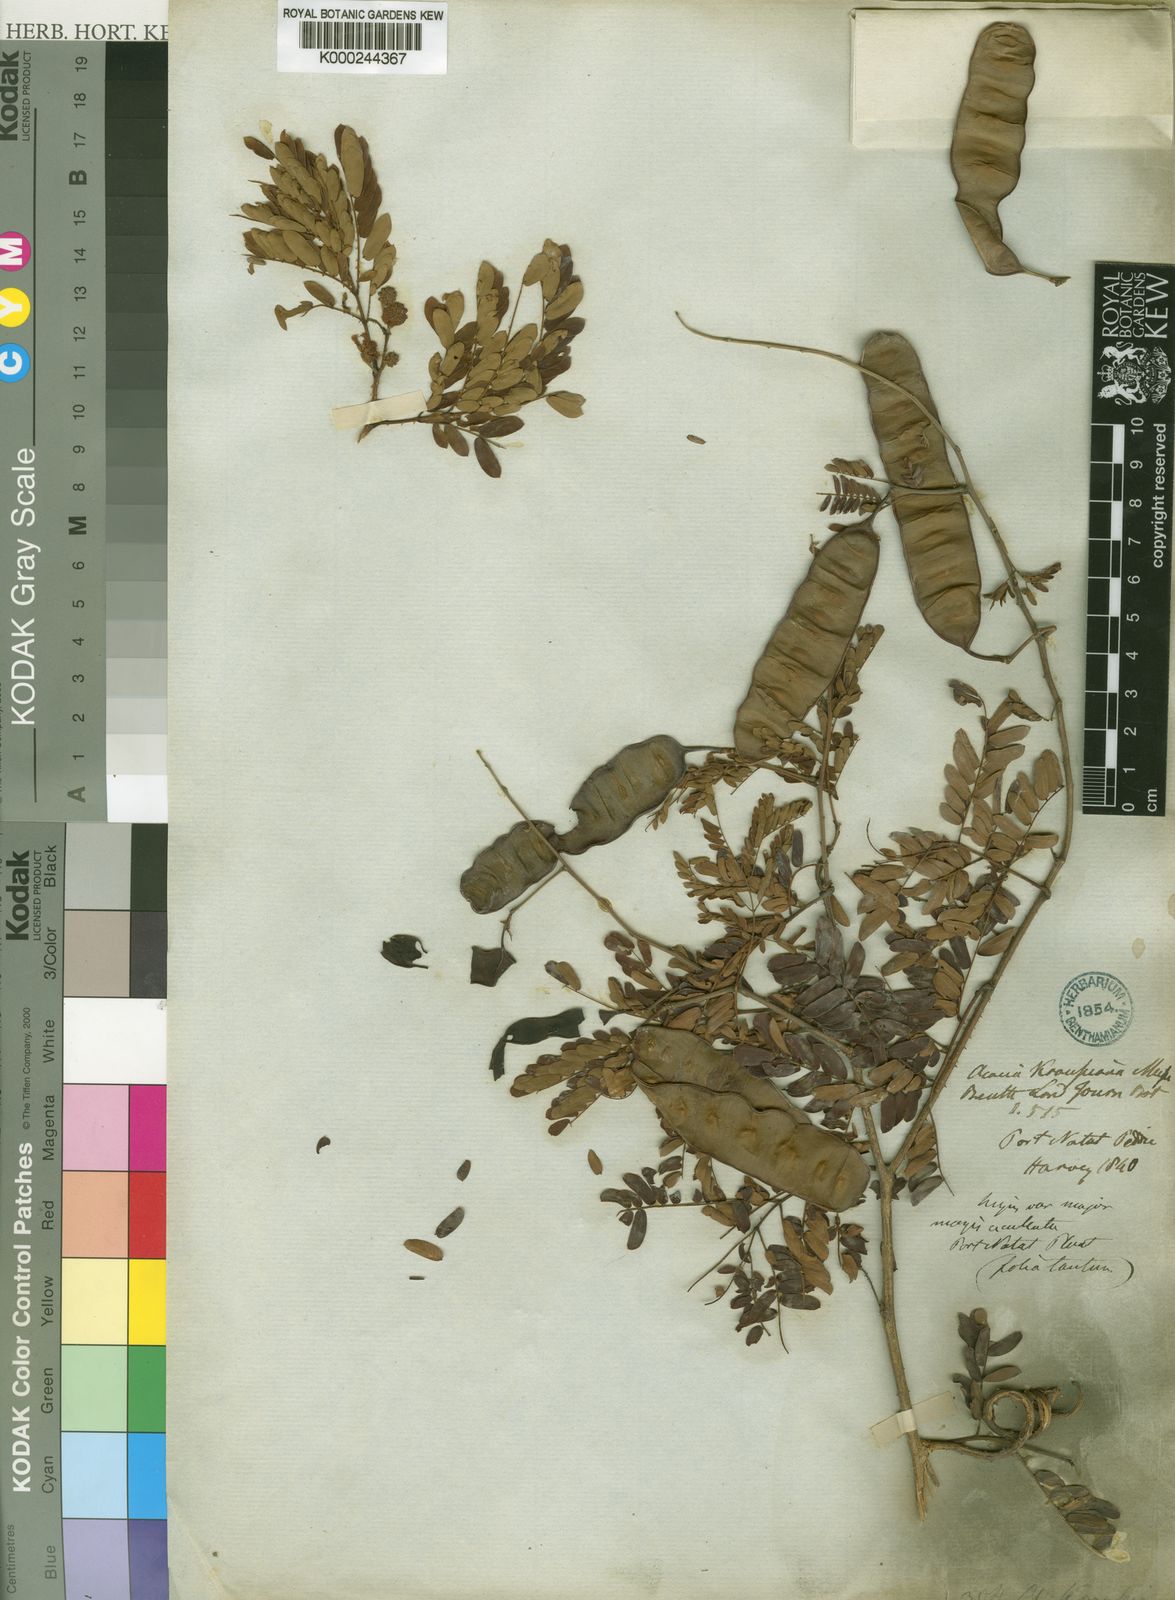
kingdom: Plantae
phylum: Tracheophyta
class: Magnoliopsida
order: Fabales
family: Fabaceae
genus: Senegalia
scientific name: Senegalia kraussiana
